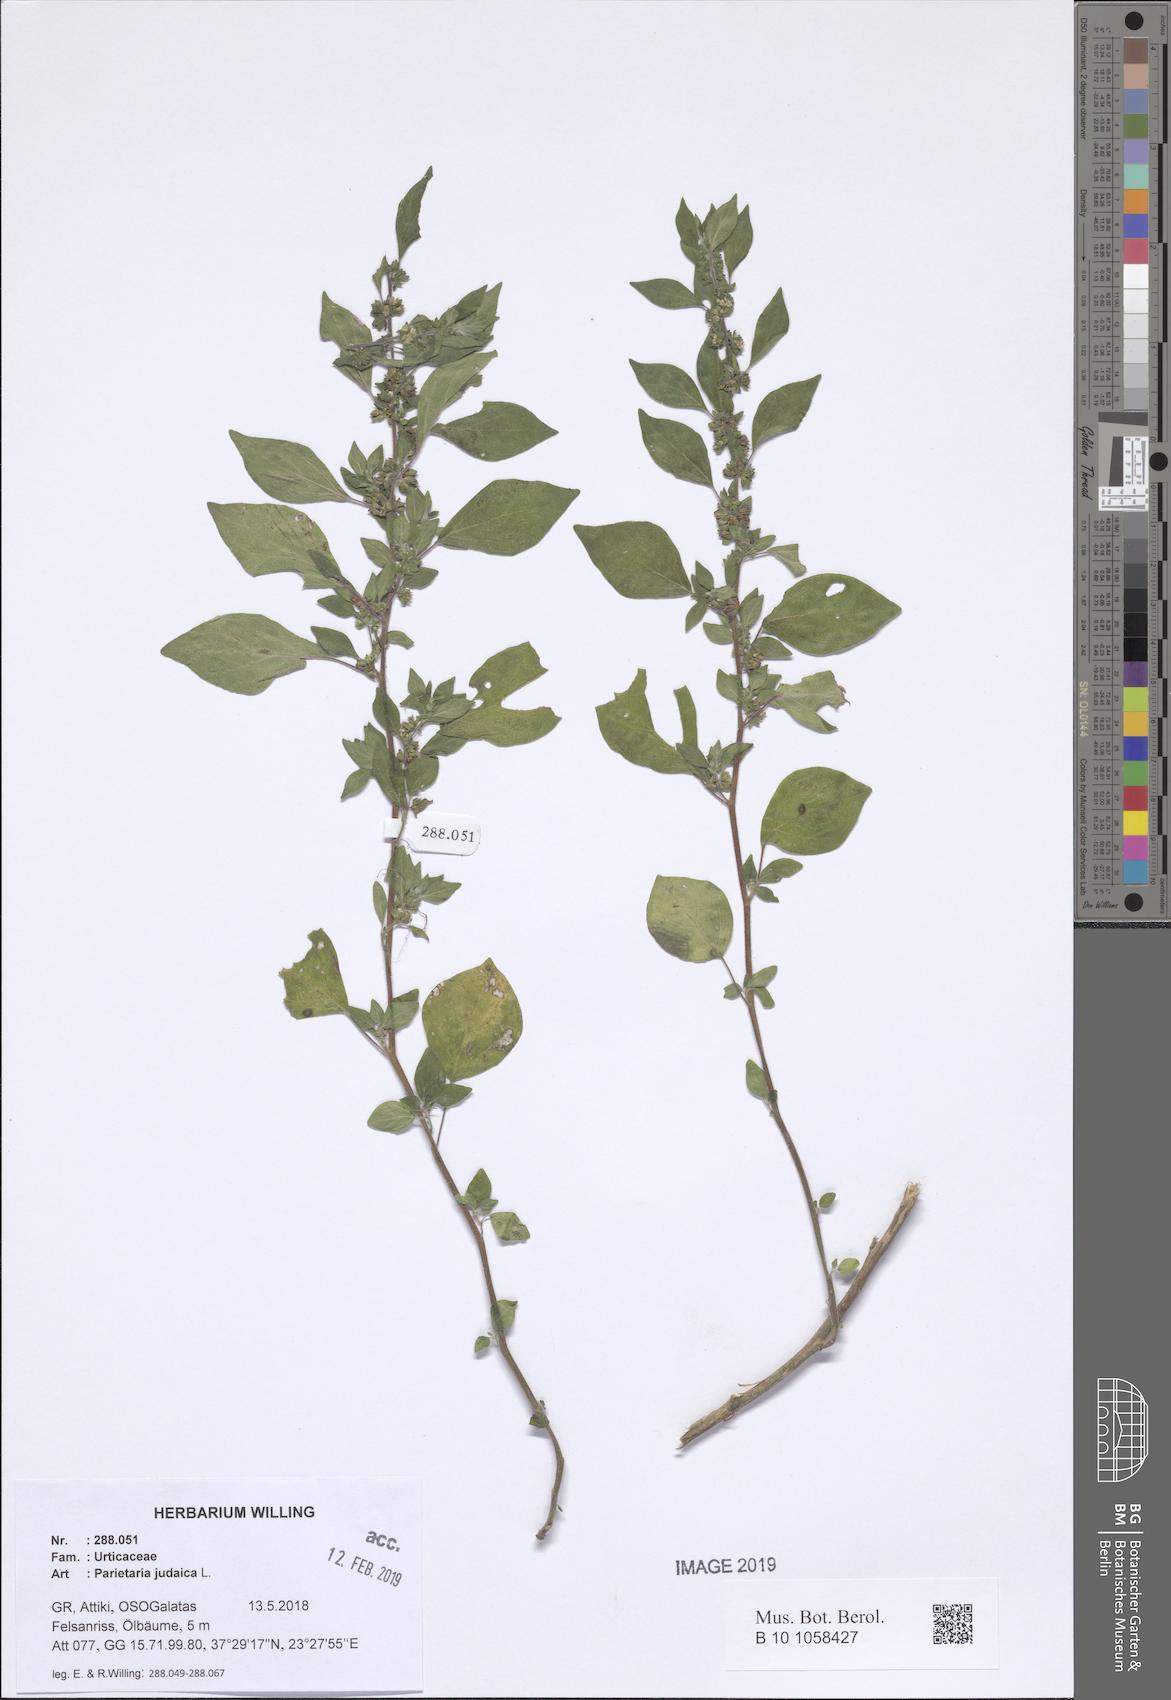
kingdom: Plantae
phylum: Tracheophyta
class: Magnoliopsida
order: Rosales
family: Urticaceae
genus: Parietaria
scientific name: Parietaria judaica
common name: Pellitory-of-the-wall
